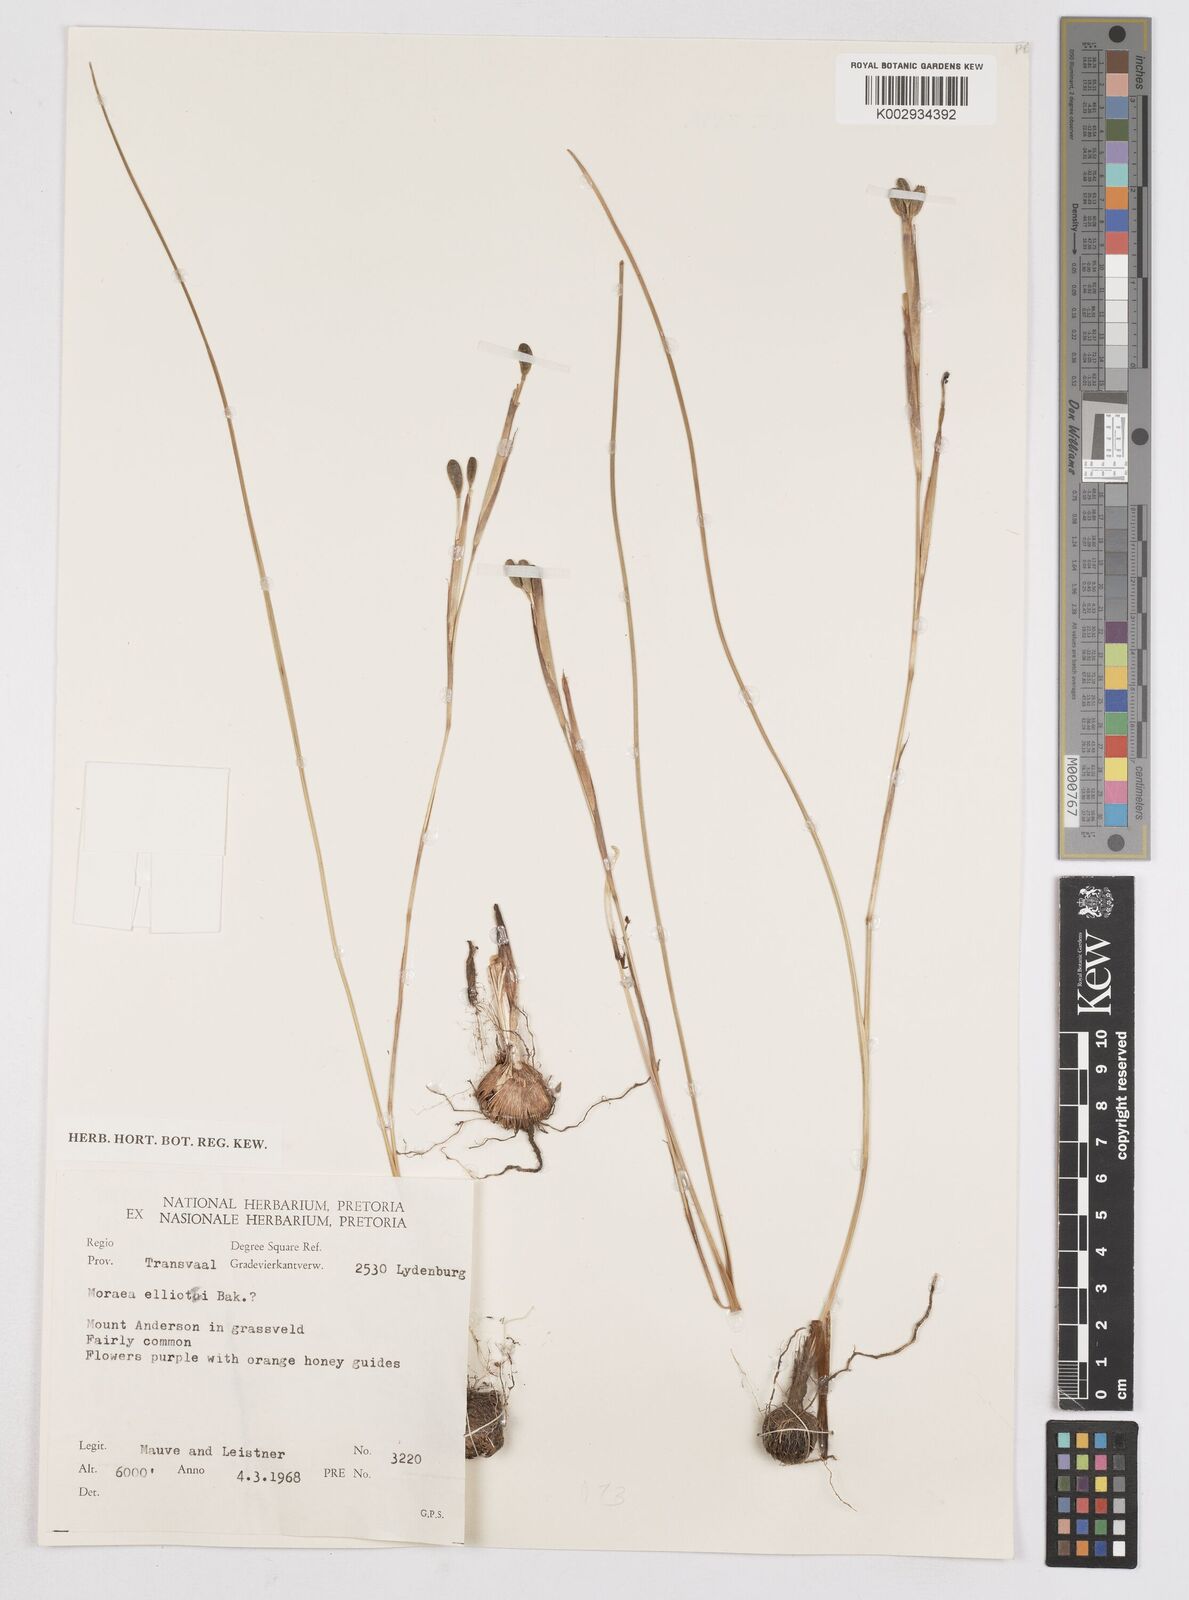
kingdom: Plantae
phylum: Tracheophyta
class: Liliopsida
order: Asparagales
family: Iridaceae
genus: Moraea
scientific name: Moraea elliotii
